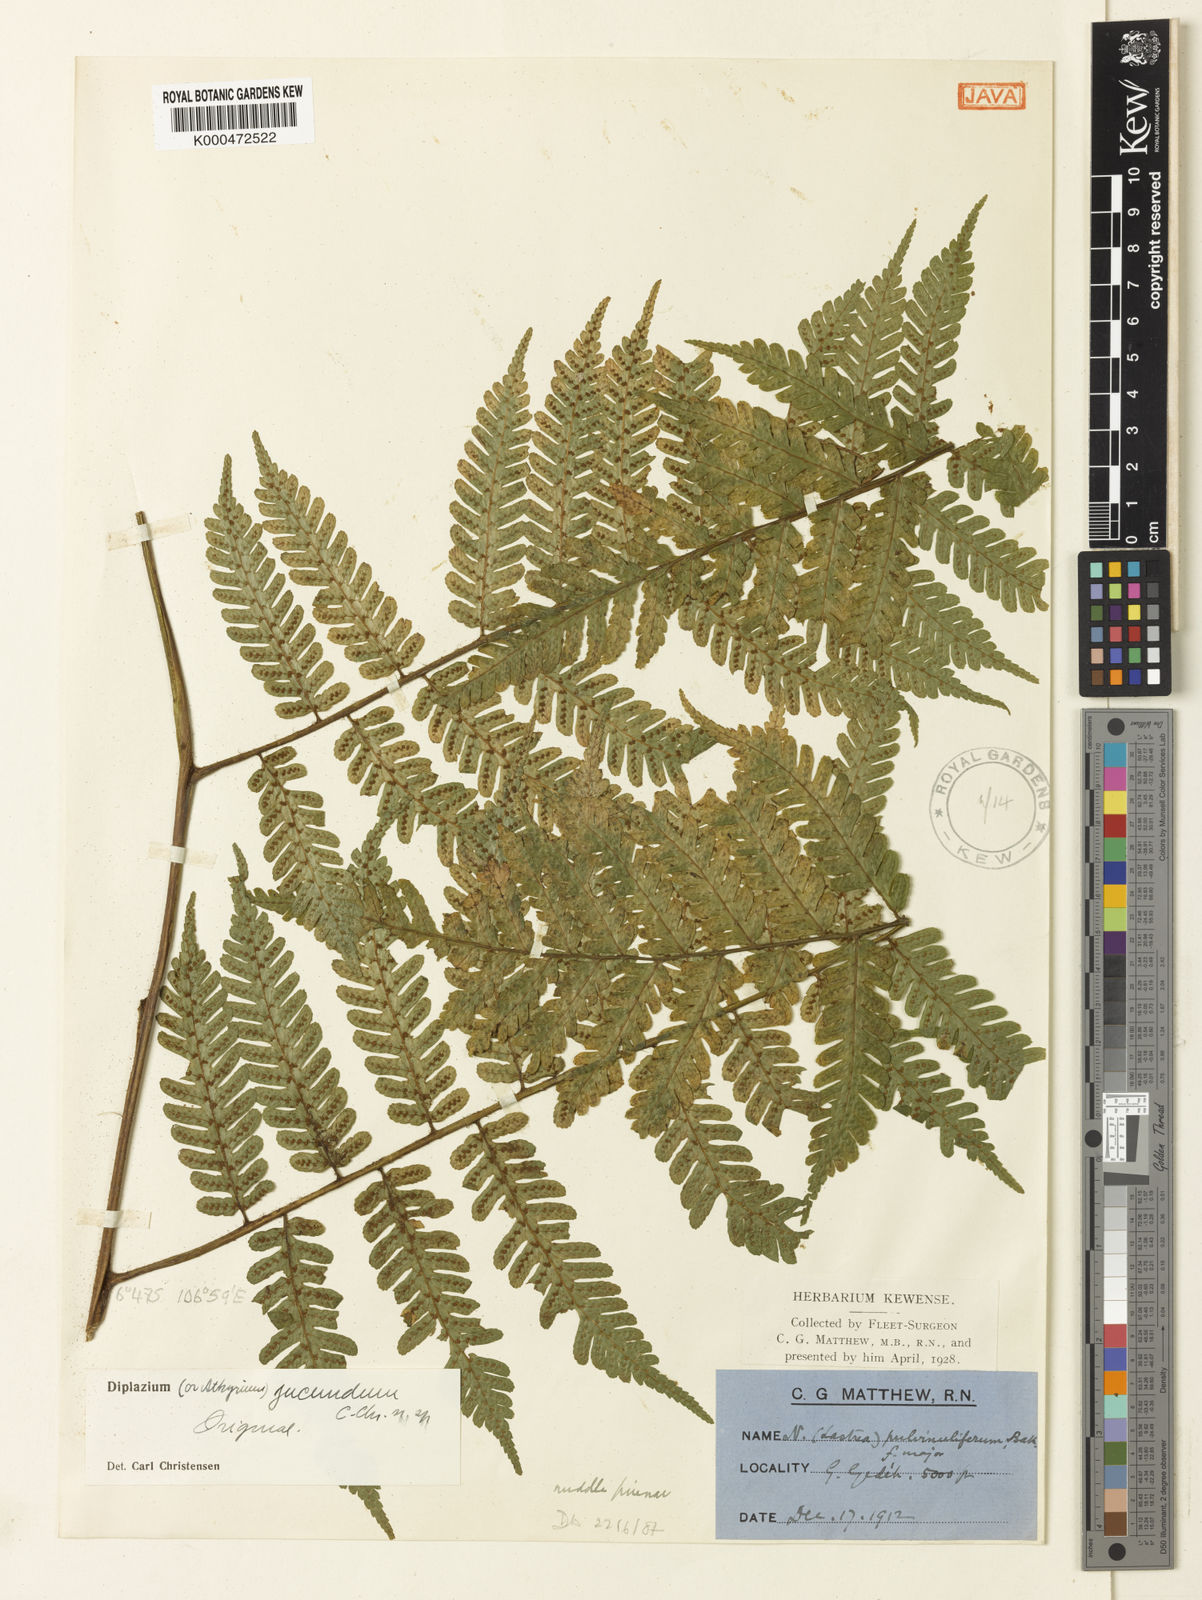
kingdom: Plantae
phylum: Tracheophyta
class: Polypodiopsida
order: Polypodiales
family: Athyriaceae
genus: Diplazium
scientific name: Diplazium
